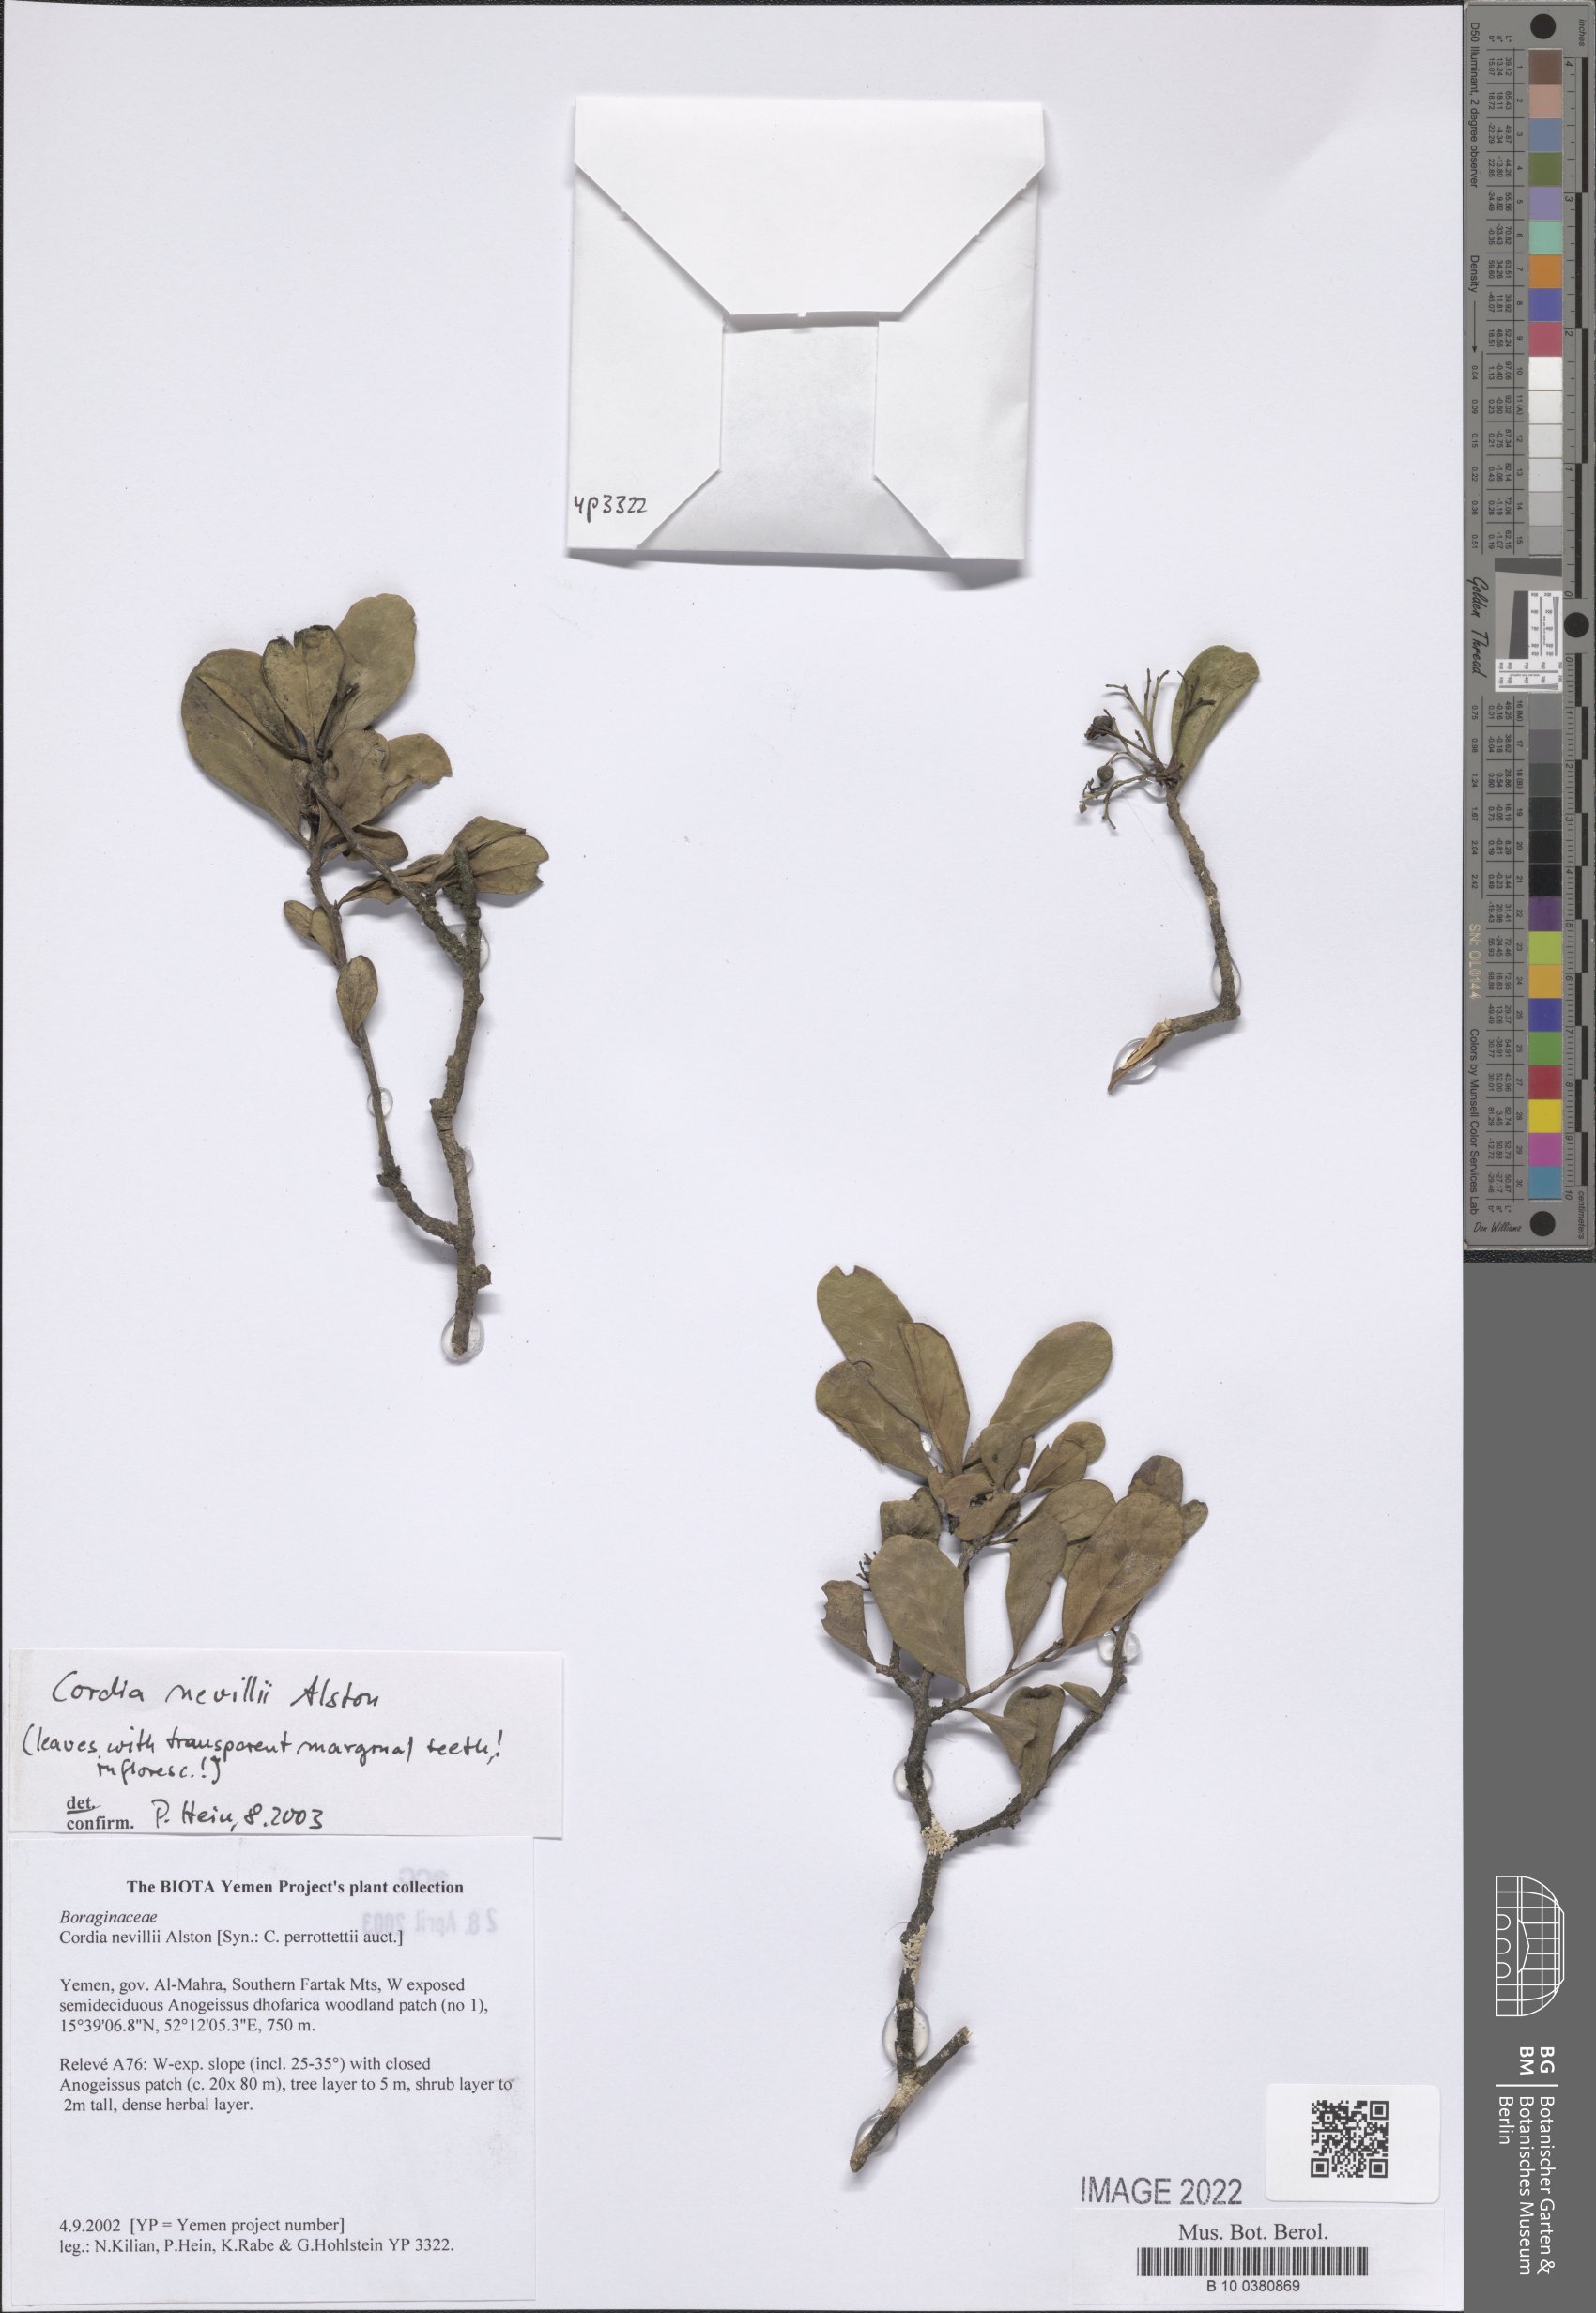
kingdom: Plantae
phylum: Tracheophyta
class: Magnoliopsida
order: Boraginales
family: Cordiaceae
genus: Cordia
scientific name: Cordia quercifolia
